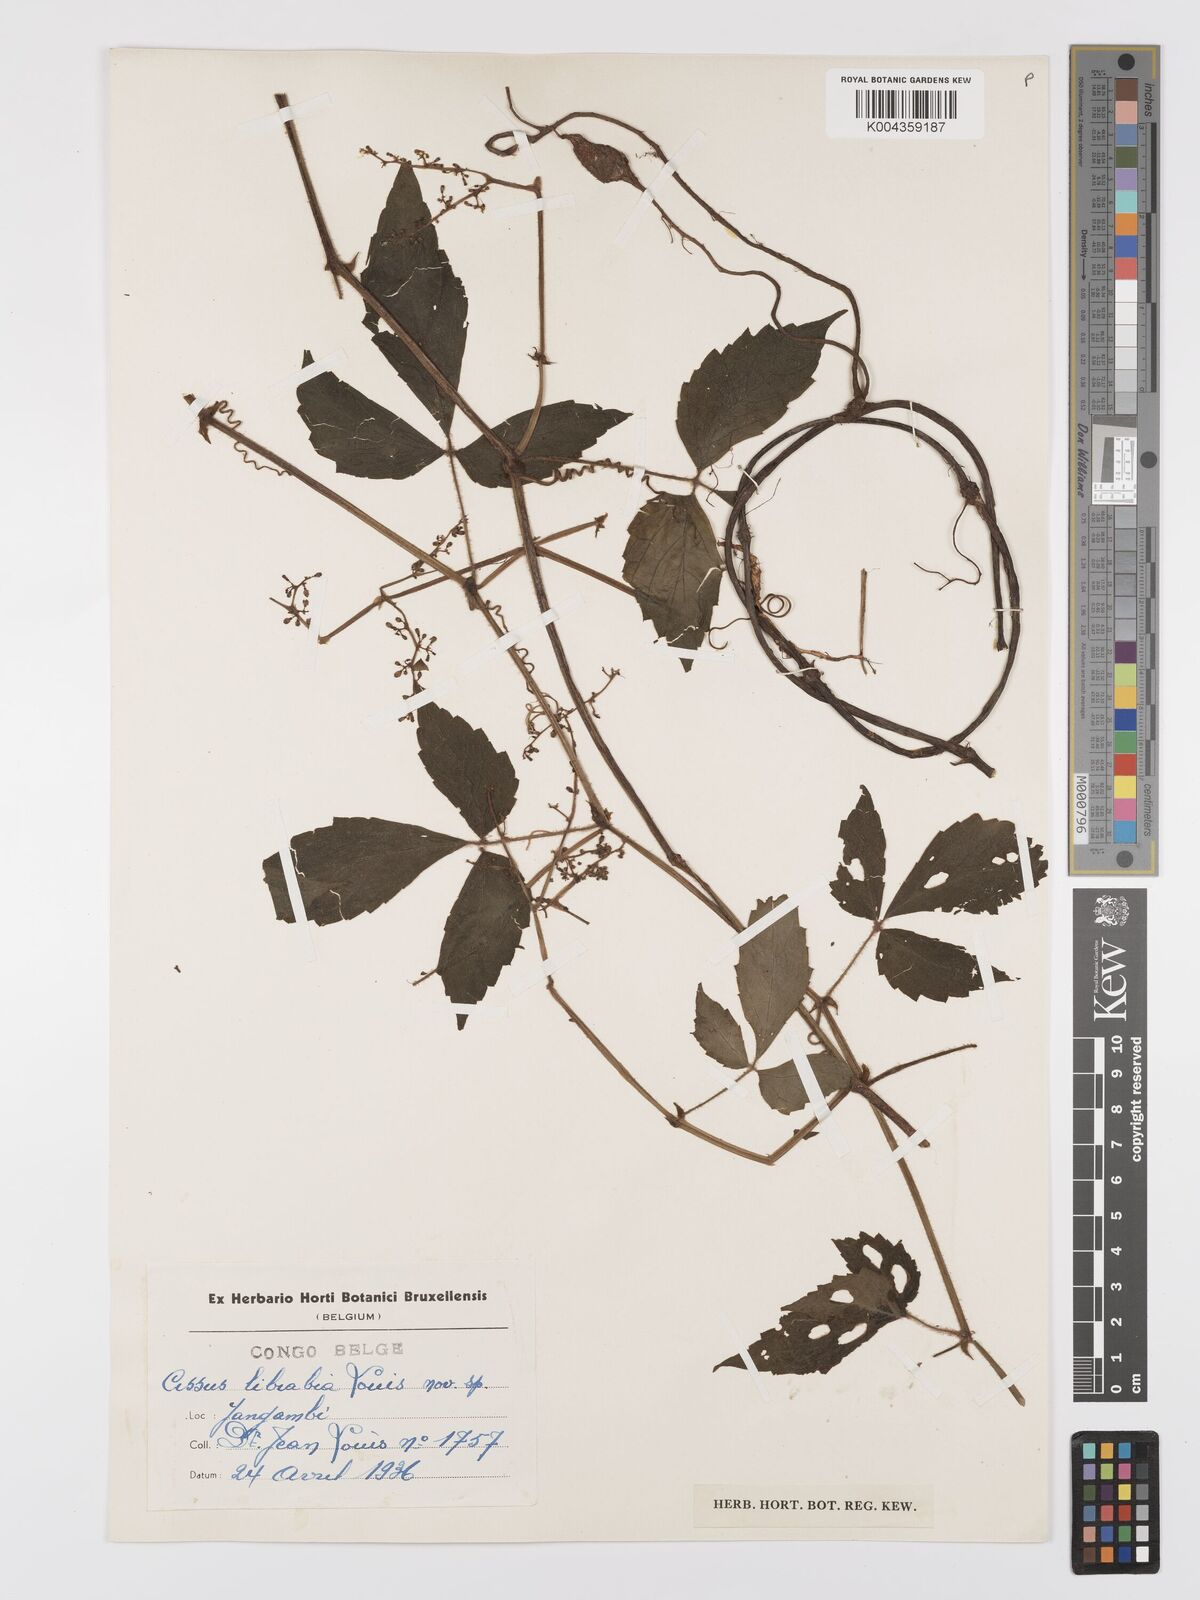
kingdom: Plantae
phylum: Tracheophyta
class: Magnoliopsida
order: Vitales
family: Vitaceae
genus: Cyphostemma
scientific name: Cyphostemma
